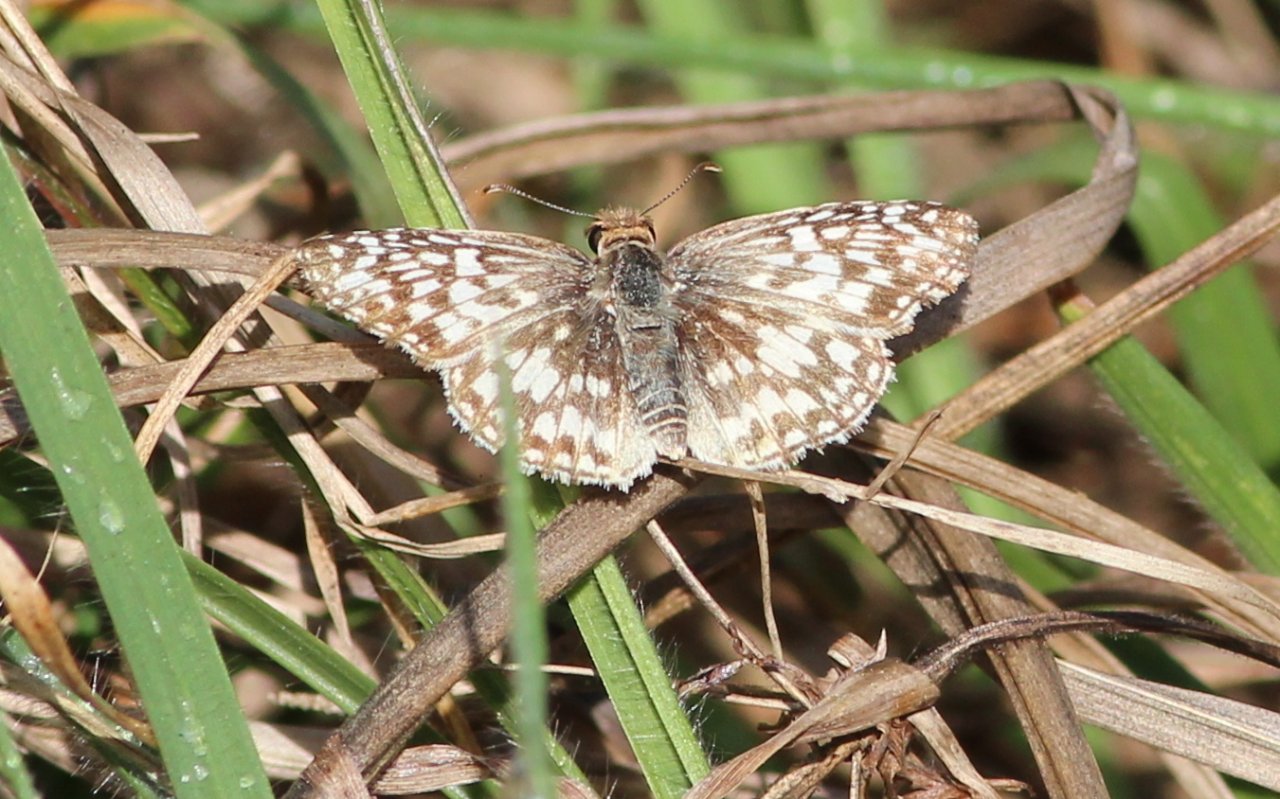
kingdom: Animalia
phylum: Arthropoda
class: Insecta
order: Lepidoptera
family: Hesperiidae
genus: Pyrgus
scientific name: Pyrgus oileus
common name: Tropical Checkered-Skipper
